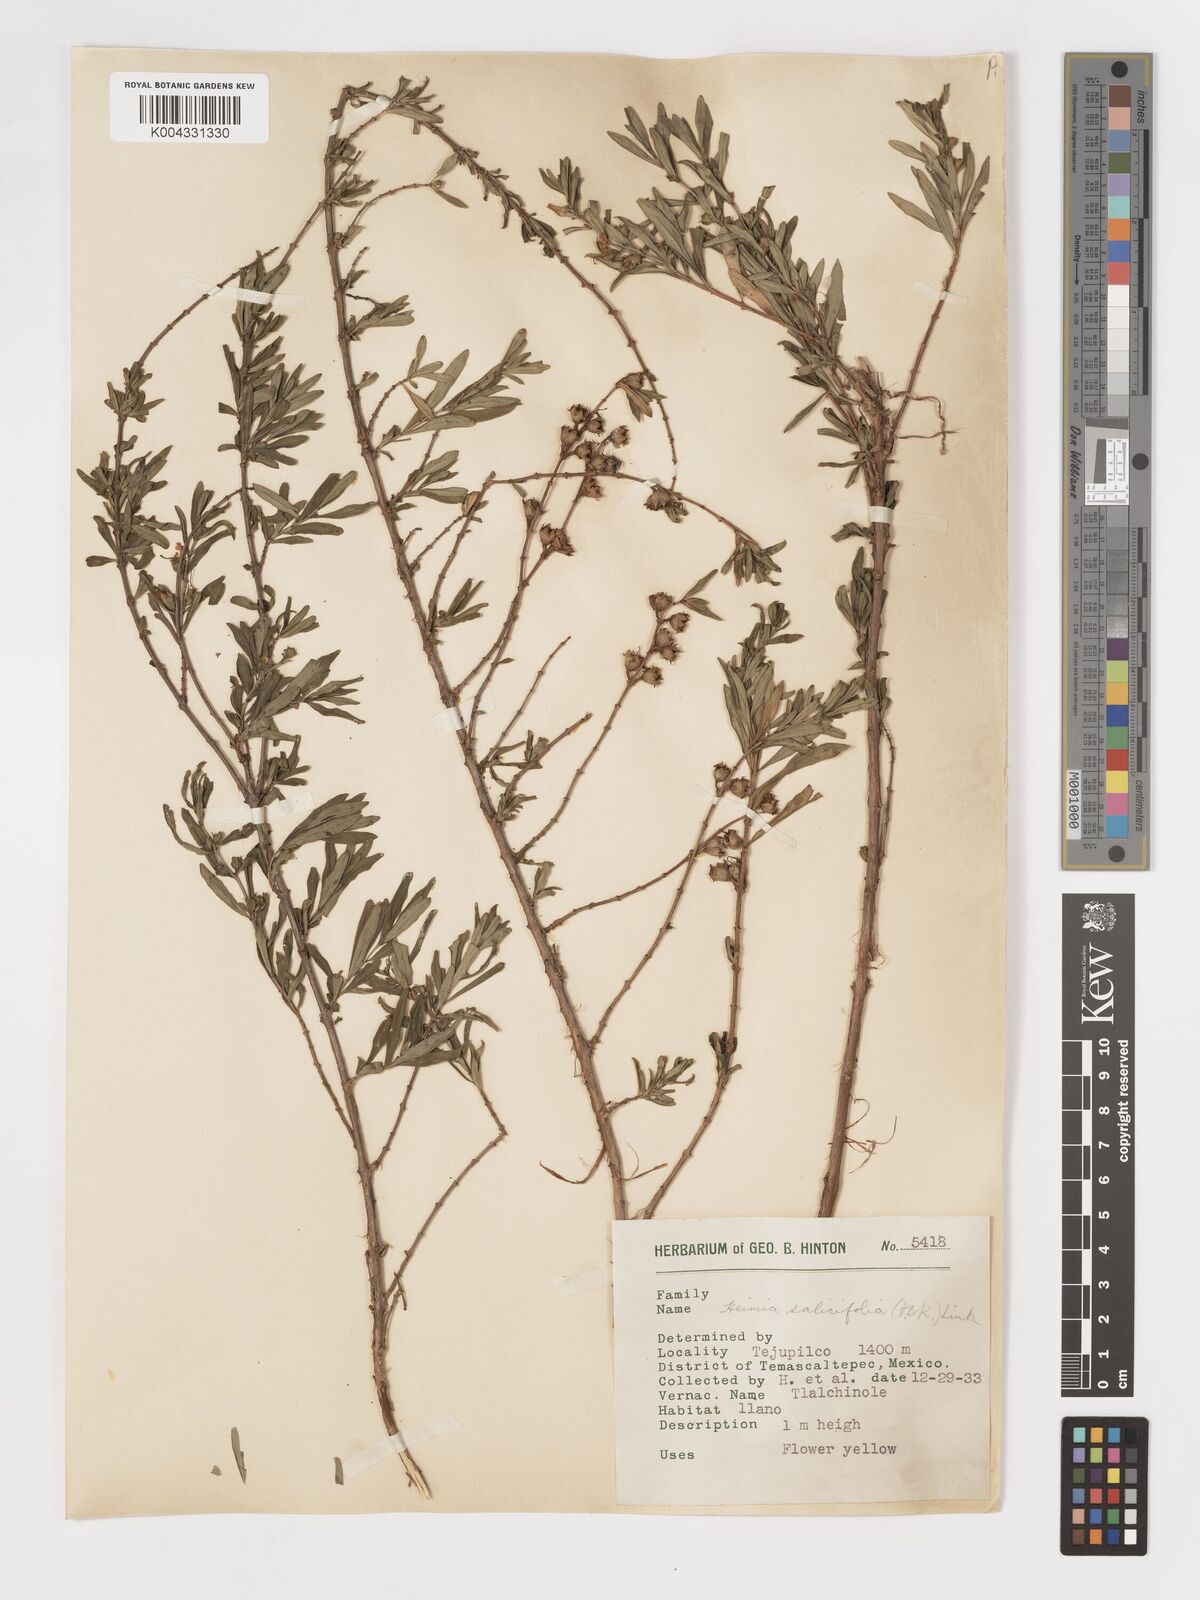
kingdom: Plantae
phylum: Tracheophyta
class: Magnoliopsida
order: Myrtales
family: Lythraceae
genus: Heimia
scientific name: Heimia salicifolia
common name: Willow-leaf heimia
